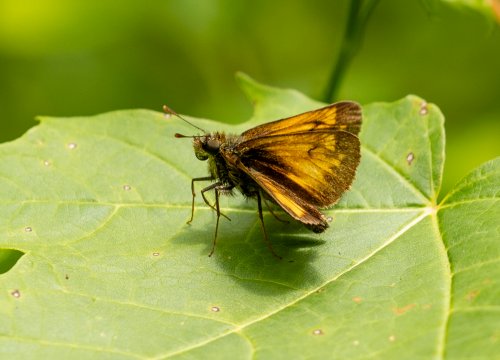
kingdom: Animalia
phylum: Arthropoda
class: Insecta
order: Lepidoptera
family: Hesperiidae
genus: Lon
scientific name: Lon hobomok
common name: Hobomok Skipper
